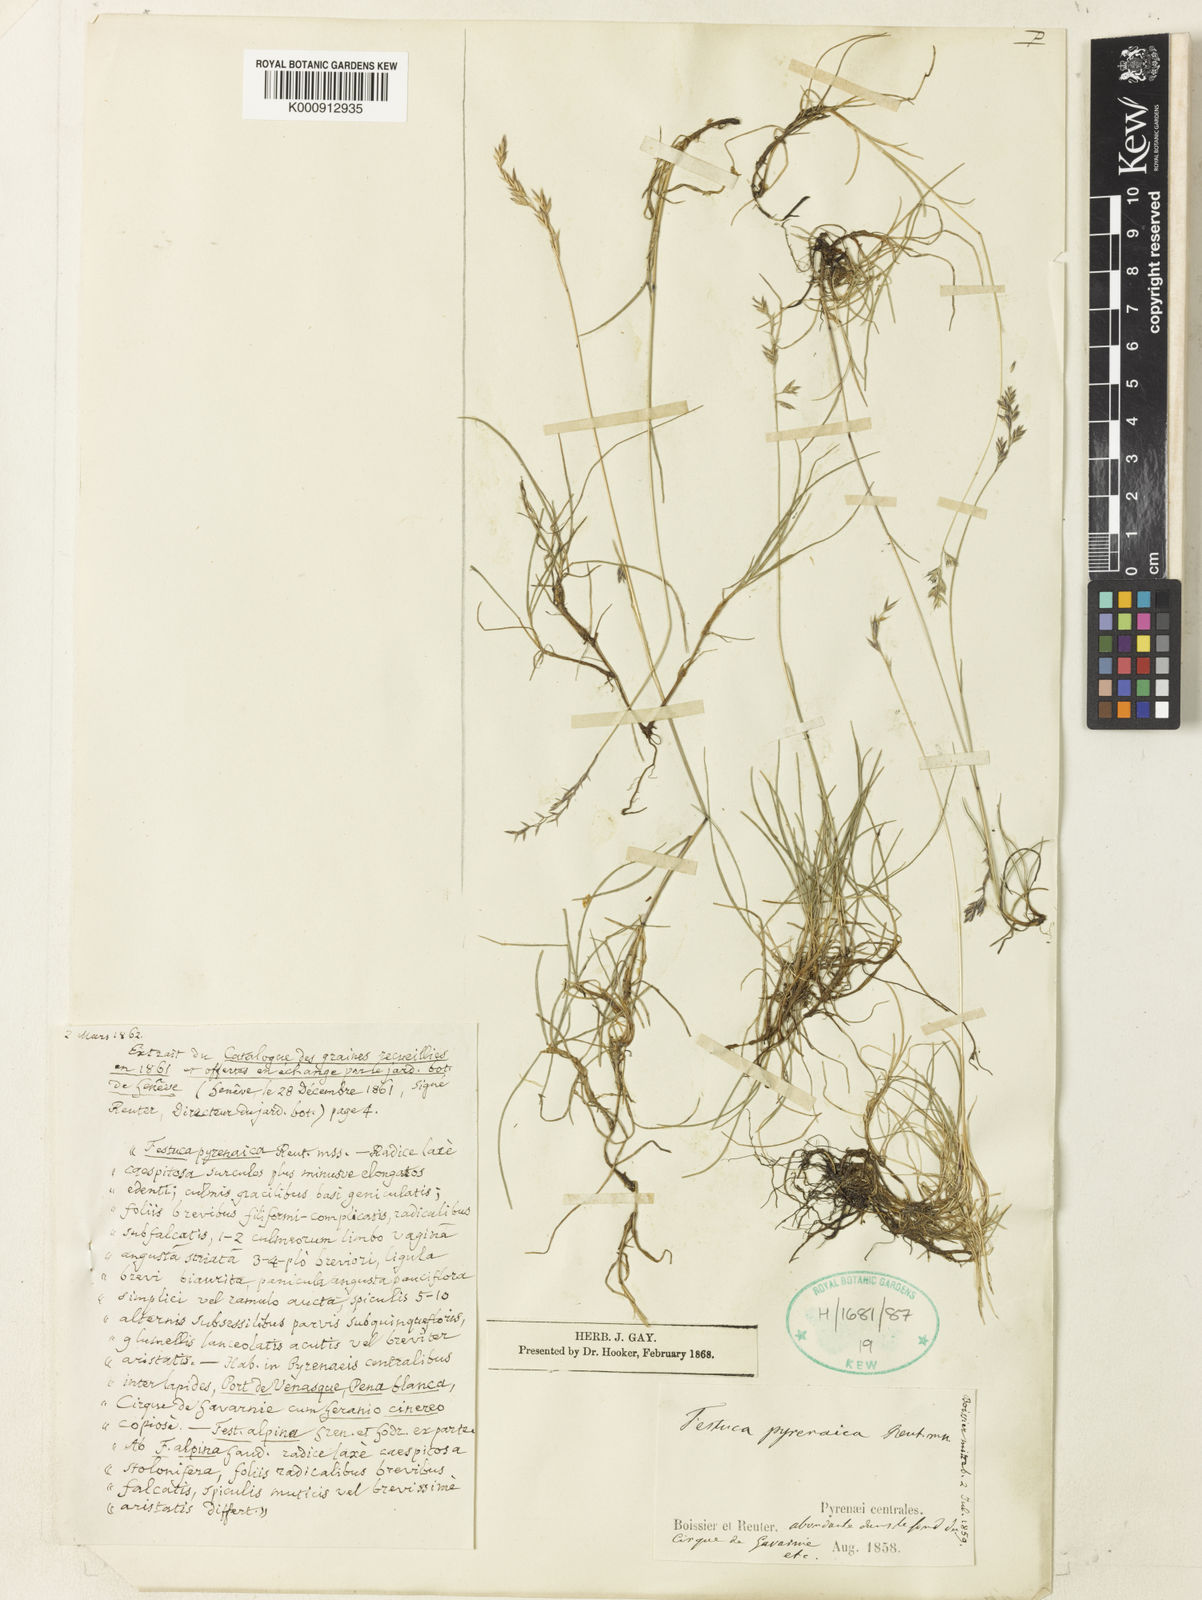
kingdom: Plantae
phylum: Tracheophyta
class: Liliopsida
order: Poales
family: Poaceae
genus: Festuca
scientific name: Festuca pyrenaica
